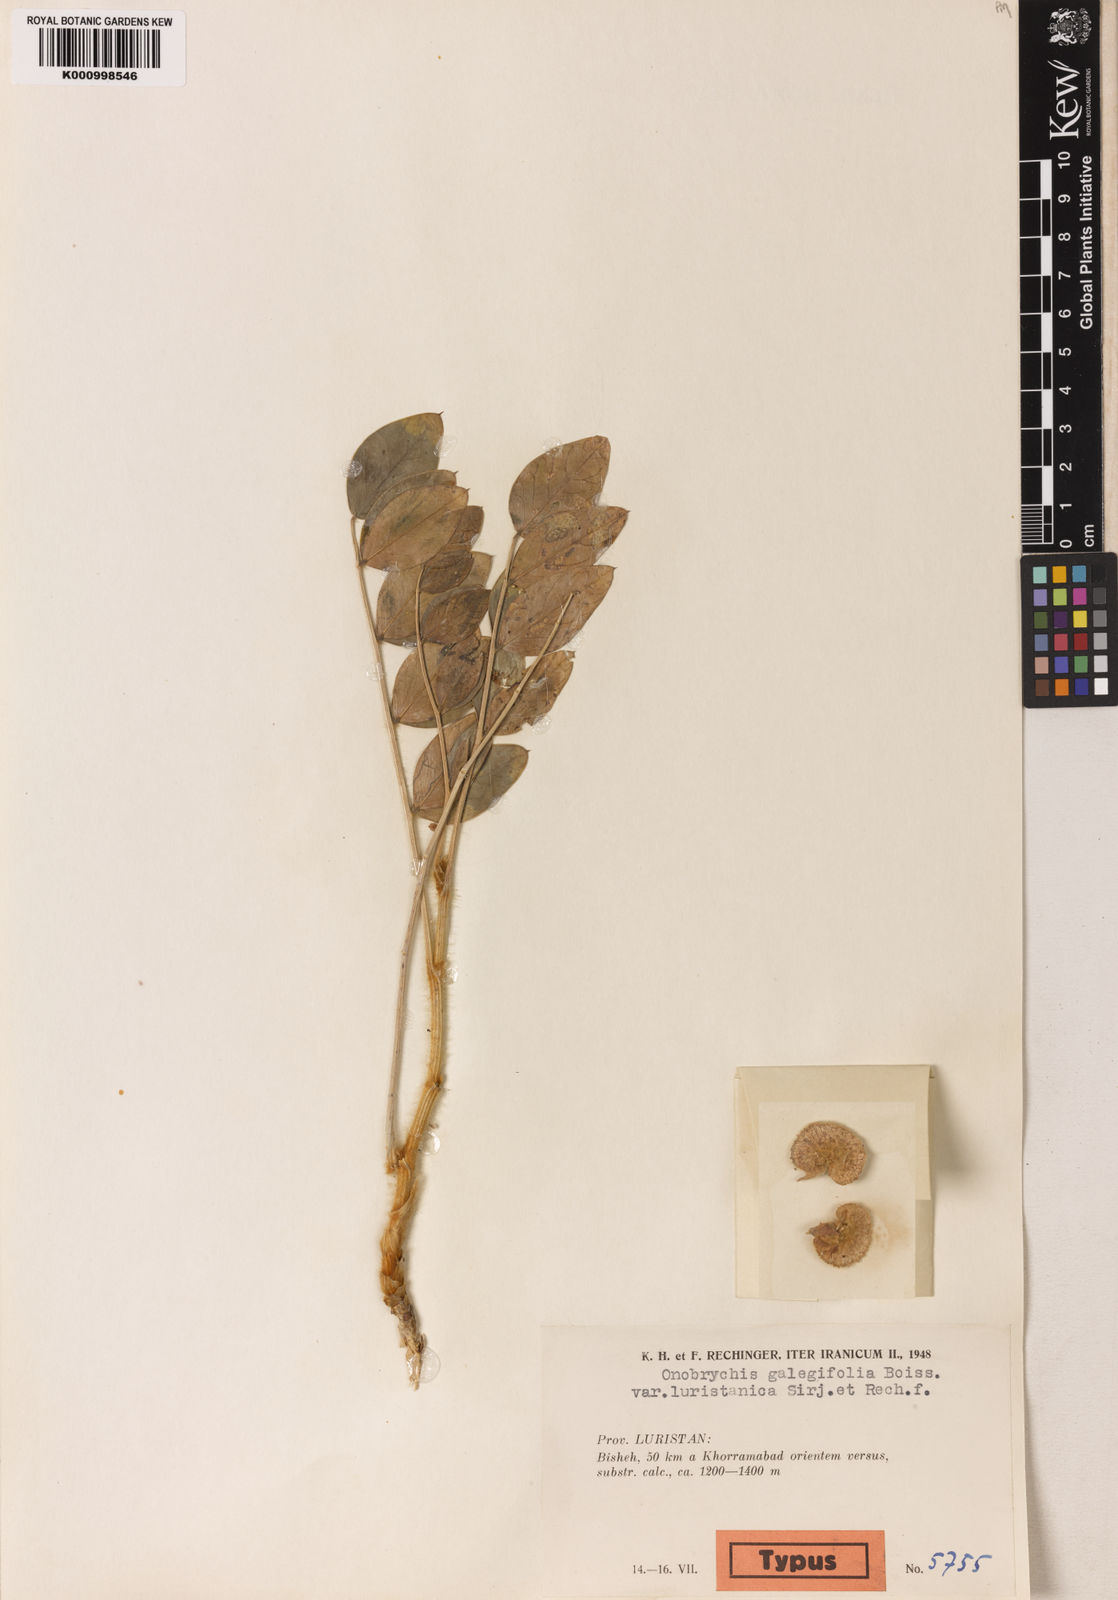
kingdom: Plantae
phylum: Tracheophyta
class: Magnoliopsida
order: Fabales
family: Fabaceae
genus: Onobrychis
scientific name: Onobrychis galegifolia
